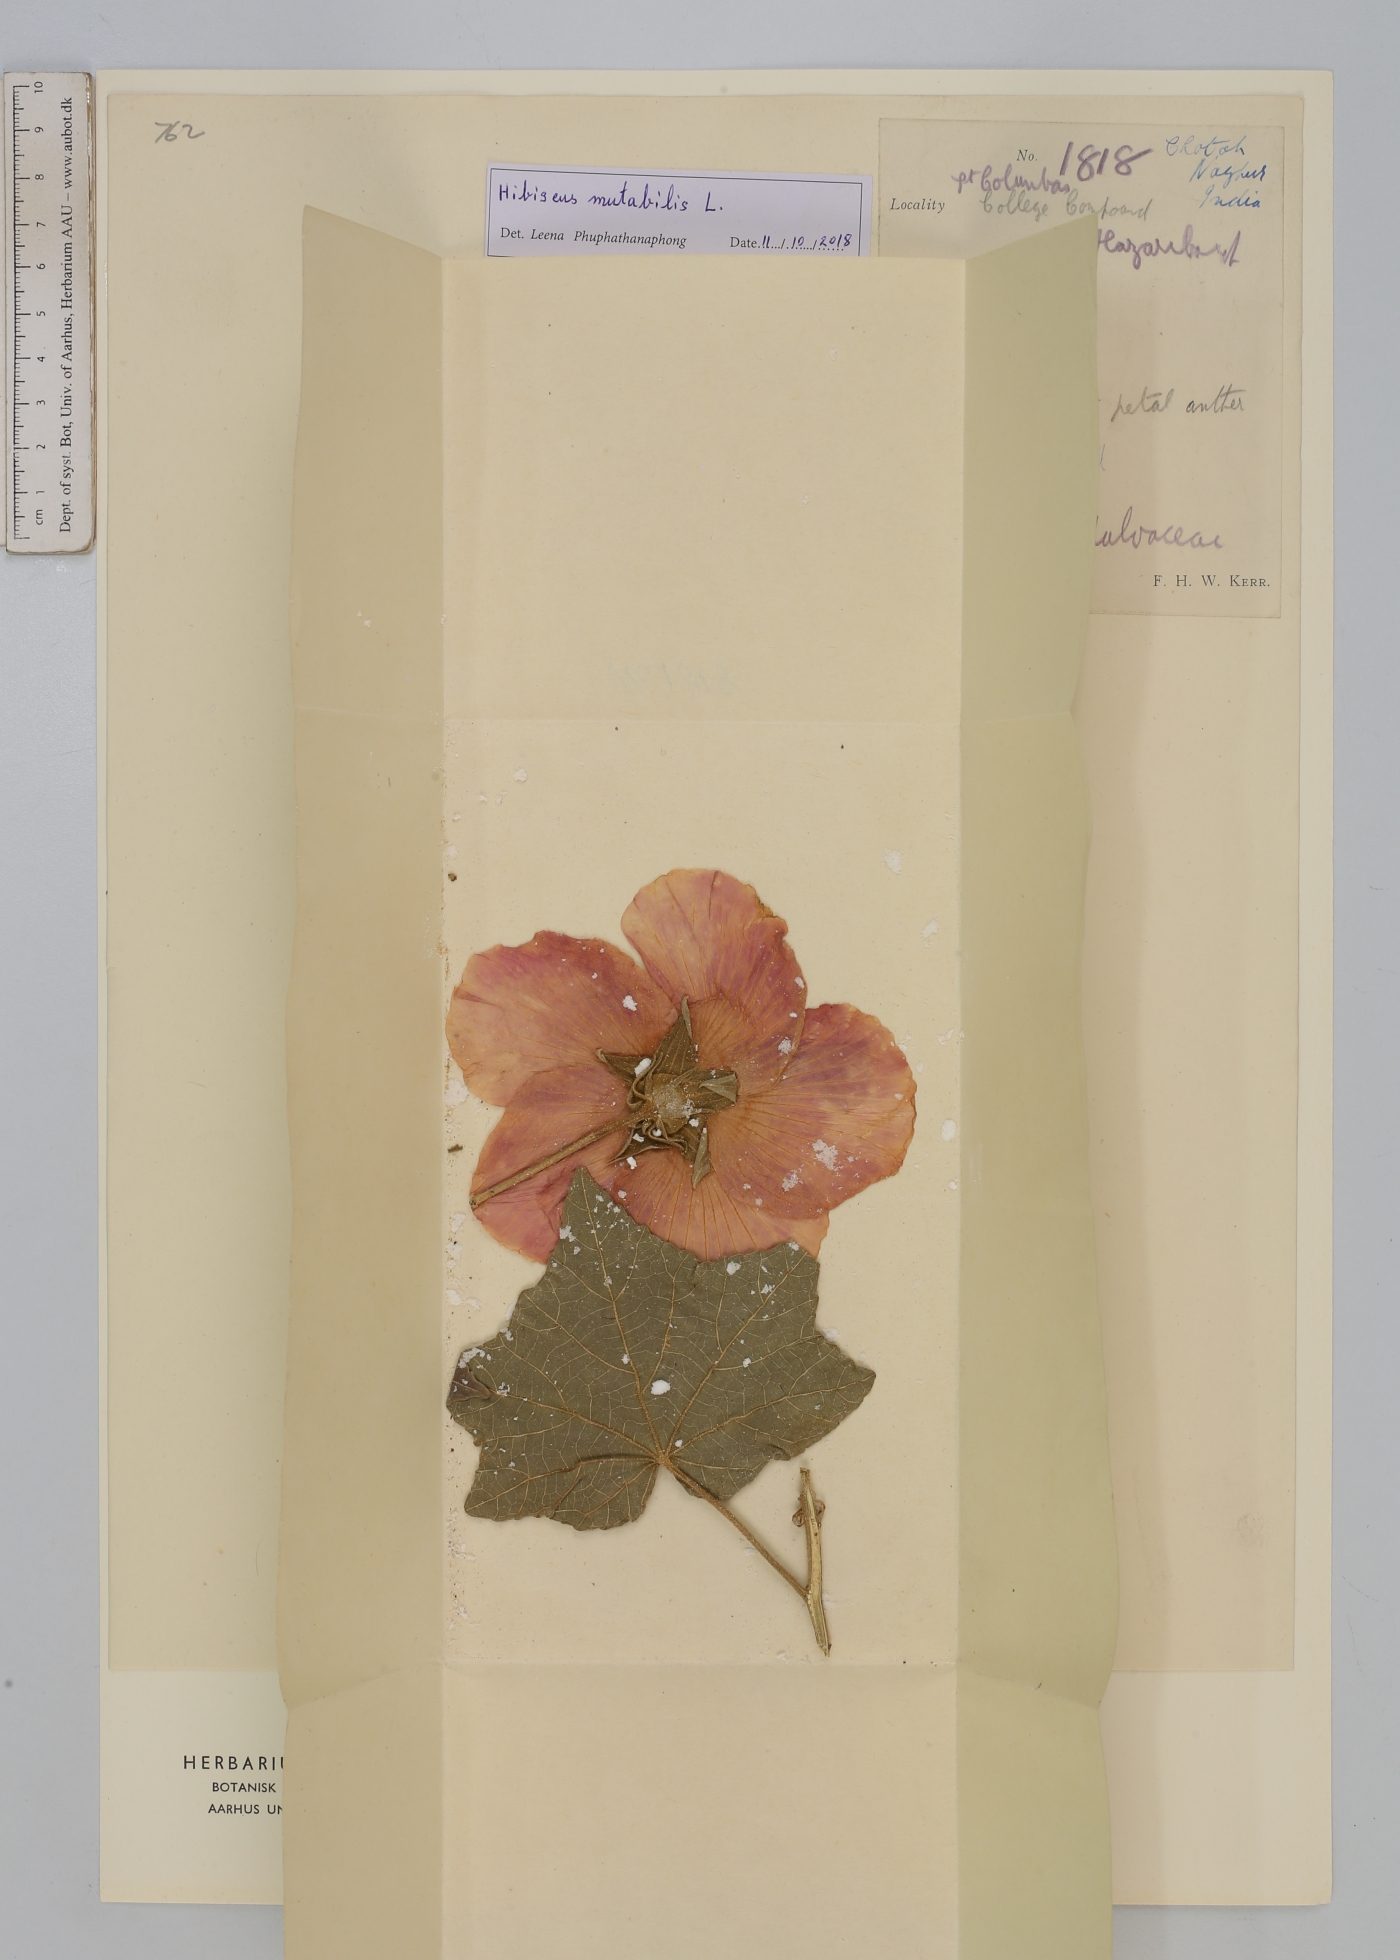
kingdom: Plantae
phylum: Tracheophyta
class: Magnoliopsida
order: Malvales
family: Malvaceae
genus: Hibiscus
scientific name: Hibiscus mutabilis
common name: Dixie rosemallow
